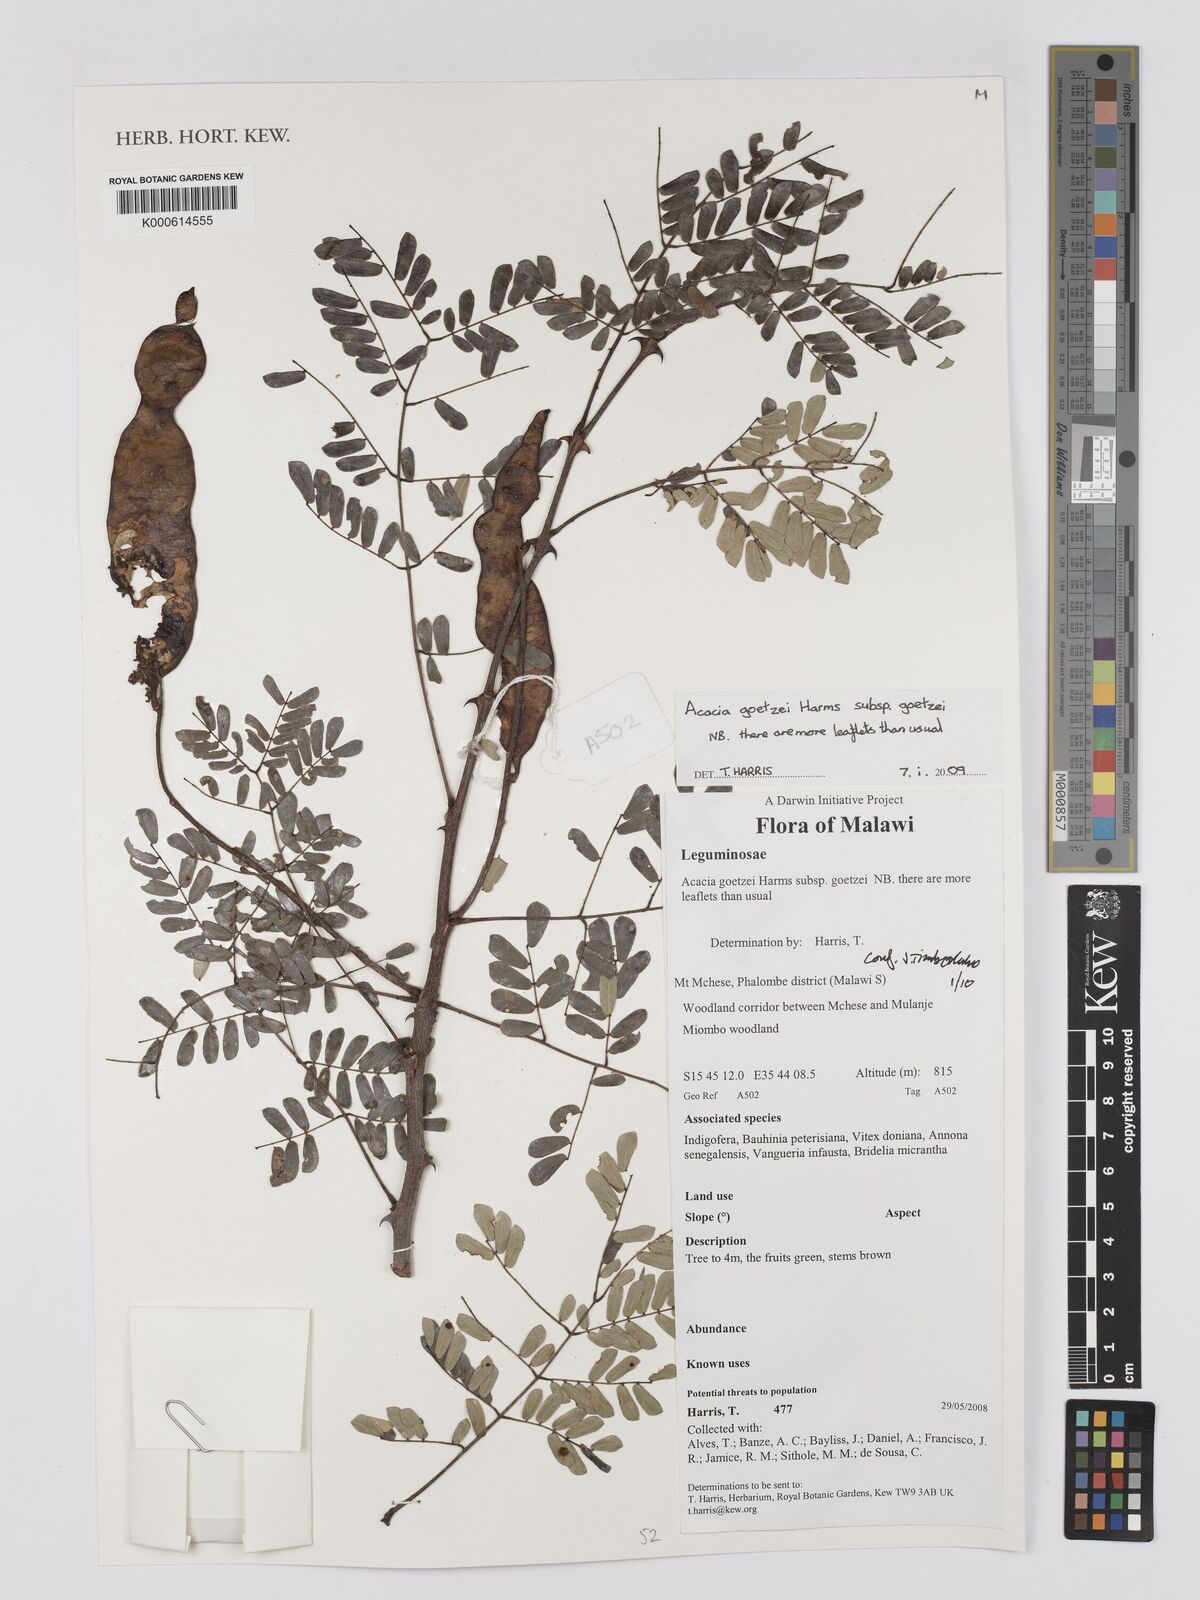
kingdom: Plantae
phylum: Tracheophyta
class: Magnoliopsida
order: Fabales
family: Fabaceae
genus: Senegalia
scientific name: Senegalia goetzei
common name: Purplepod acacia
